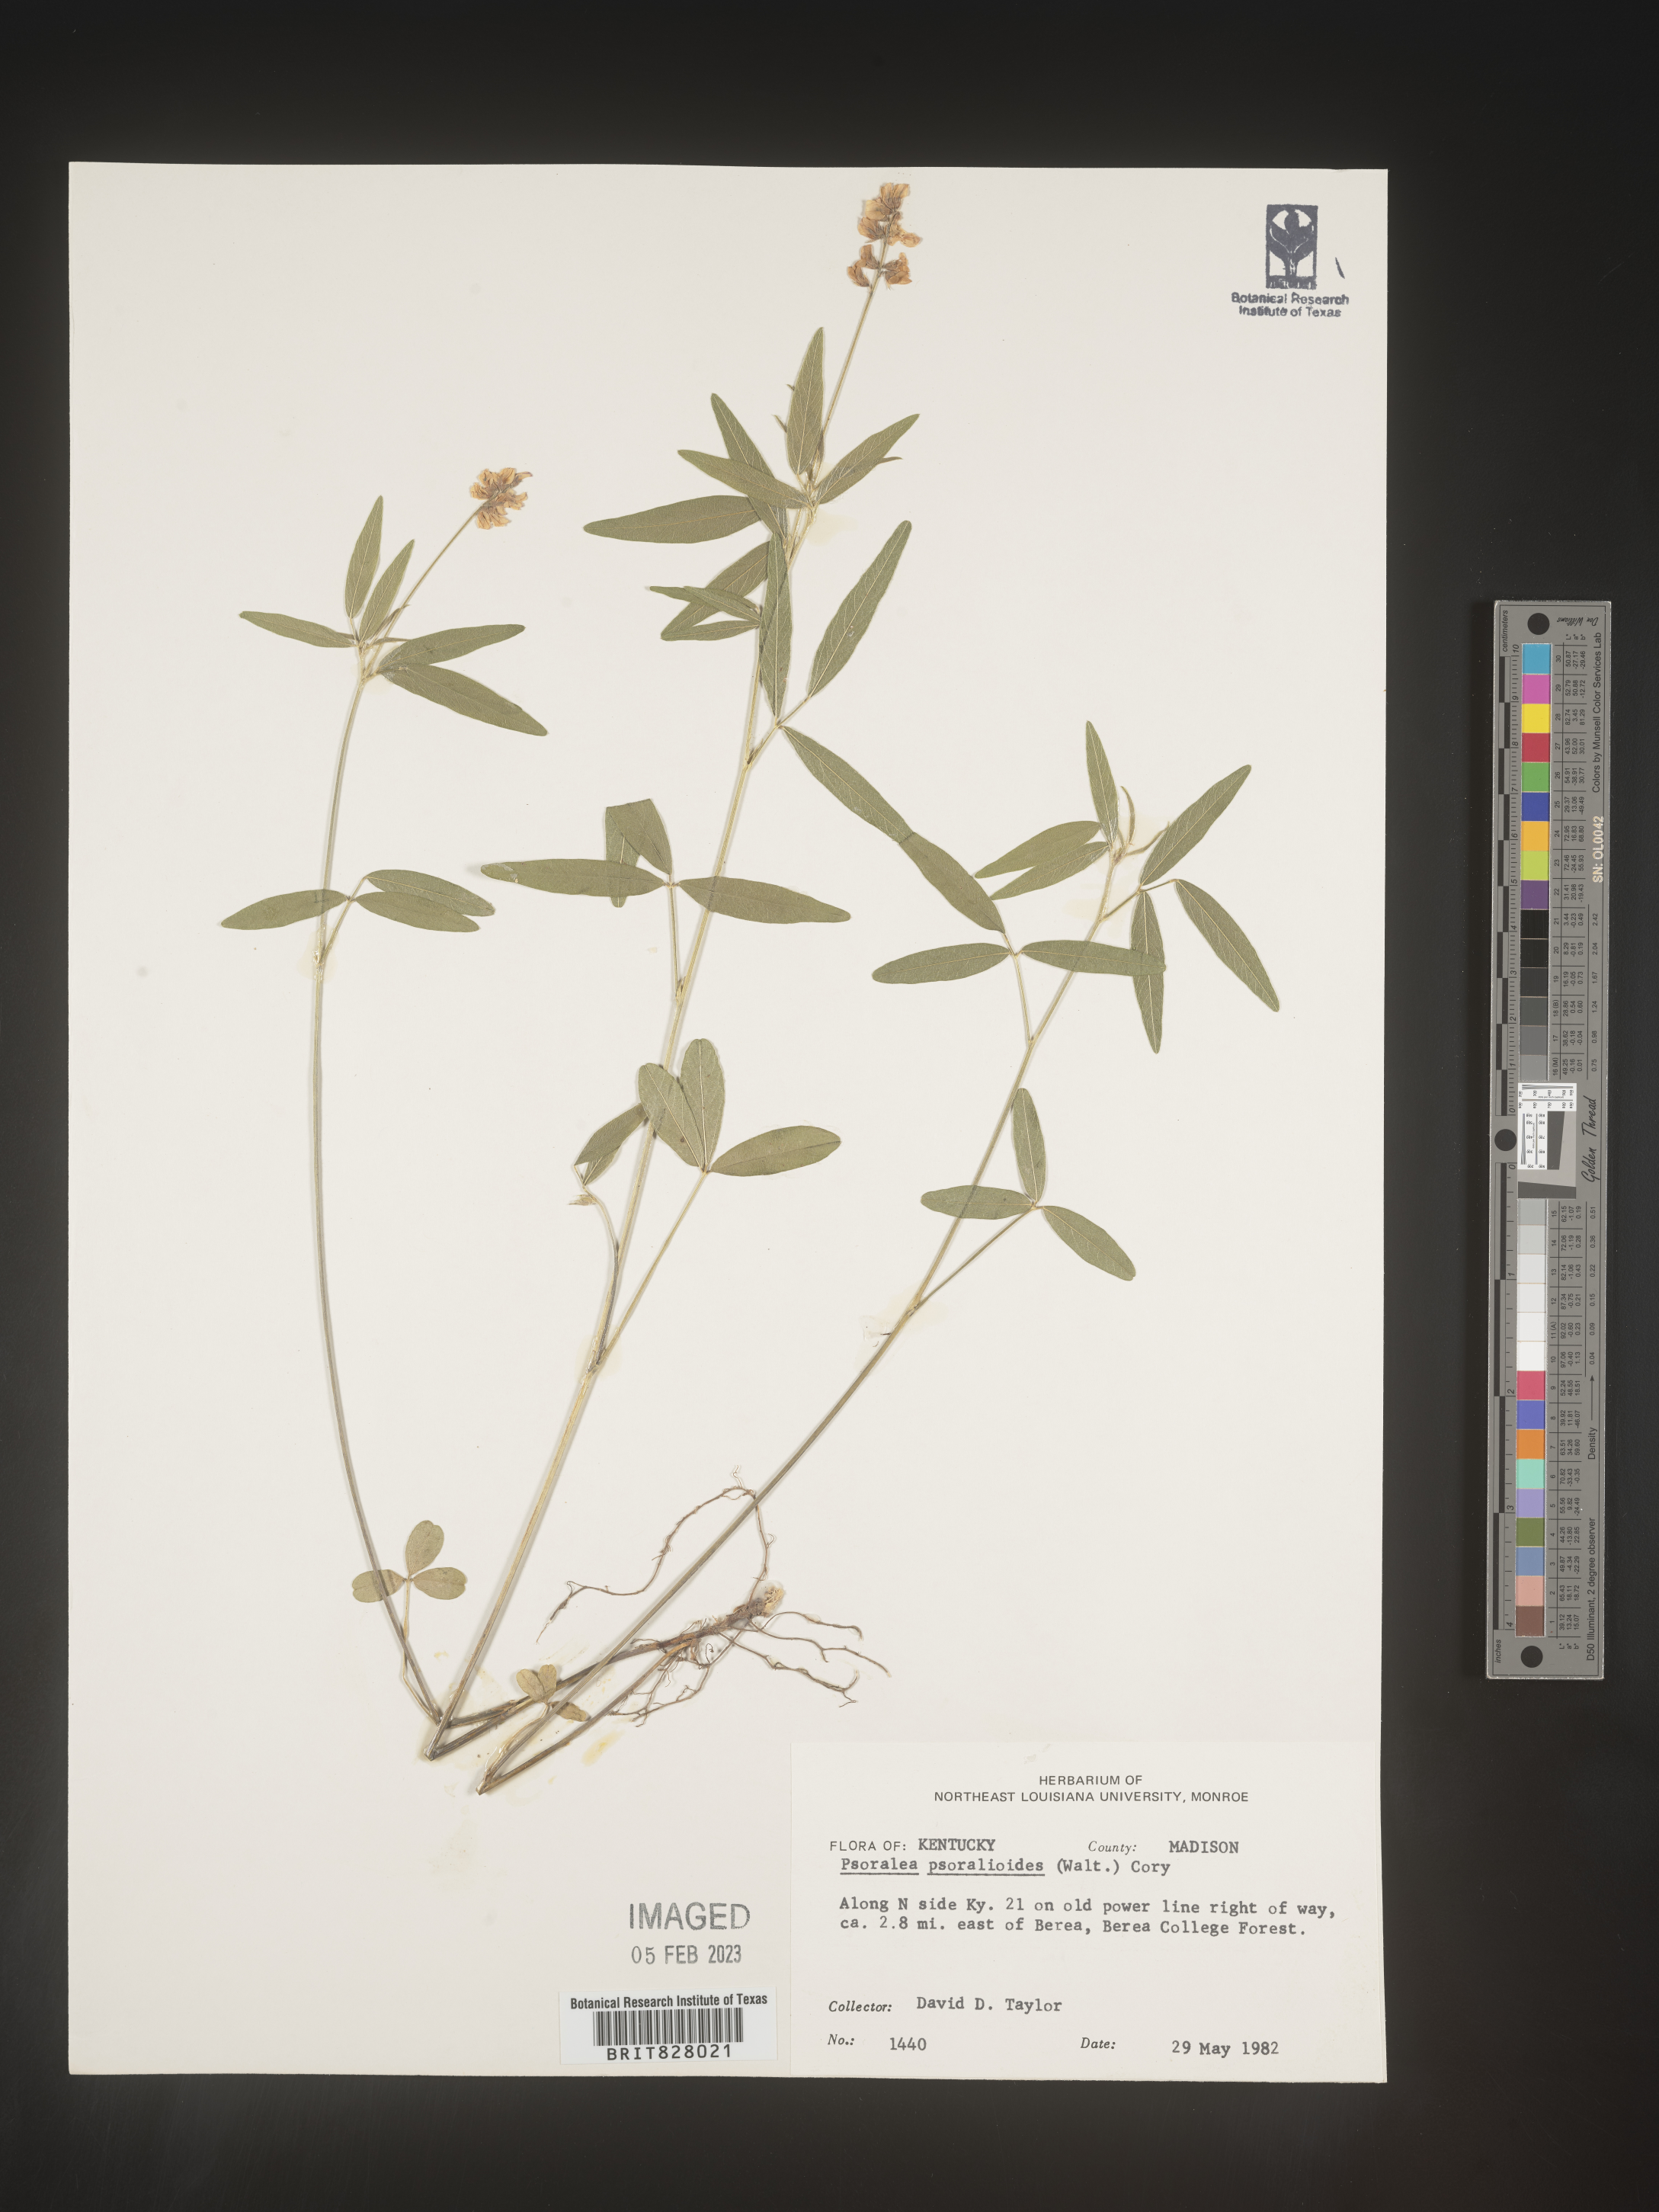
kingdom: Plantae
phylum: Tracheophyta
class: Magnoliopsida
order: Fabales
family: Fabaceae
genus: Orbexilum
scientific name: Orbexilum pedunculatum
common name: Sampson's snakeroot
